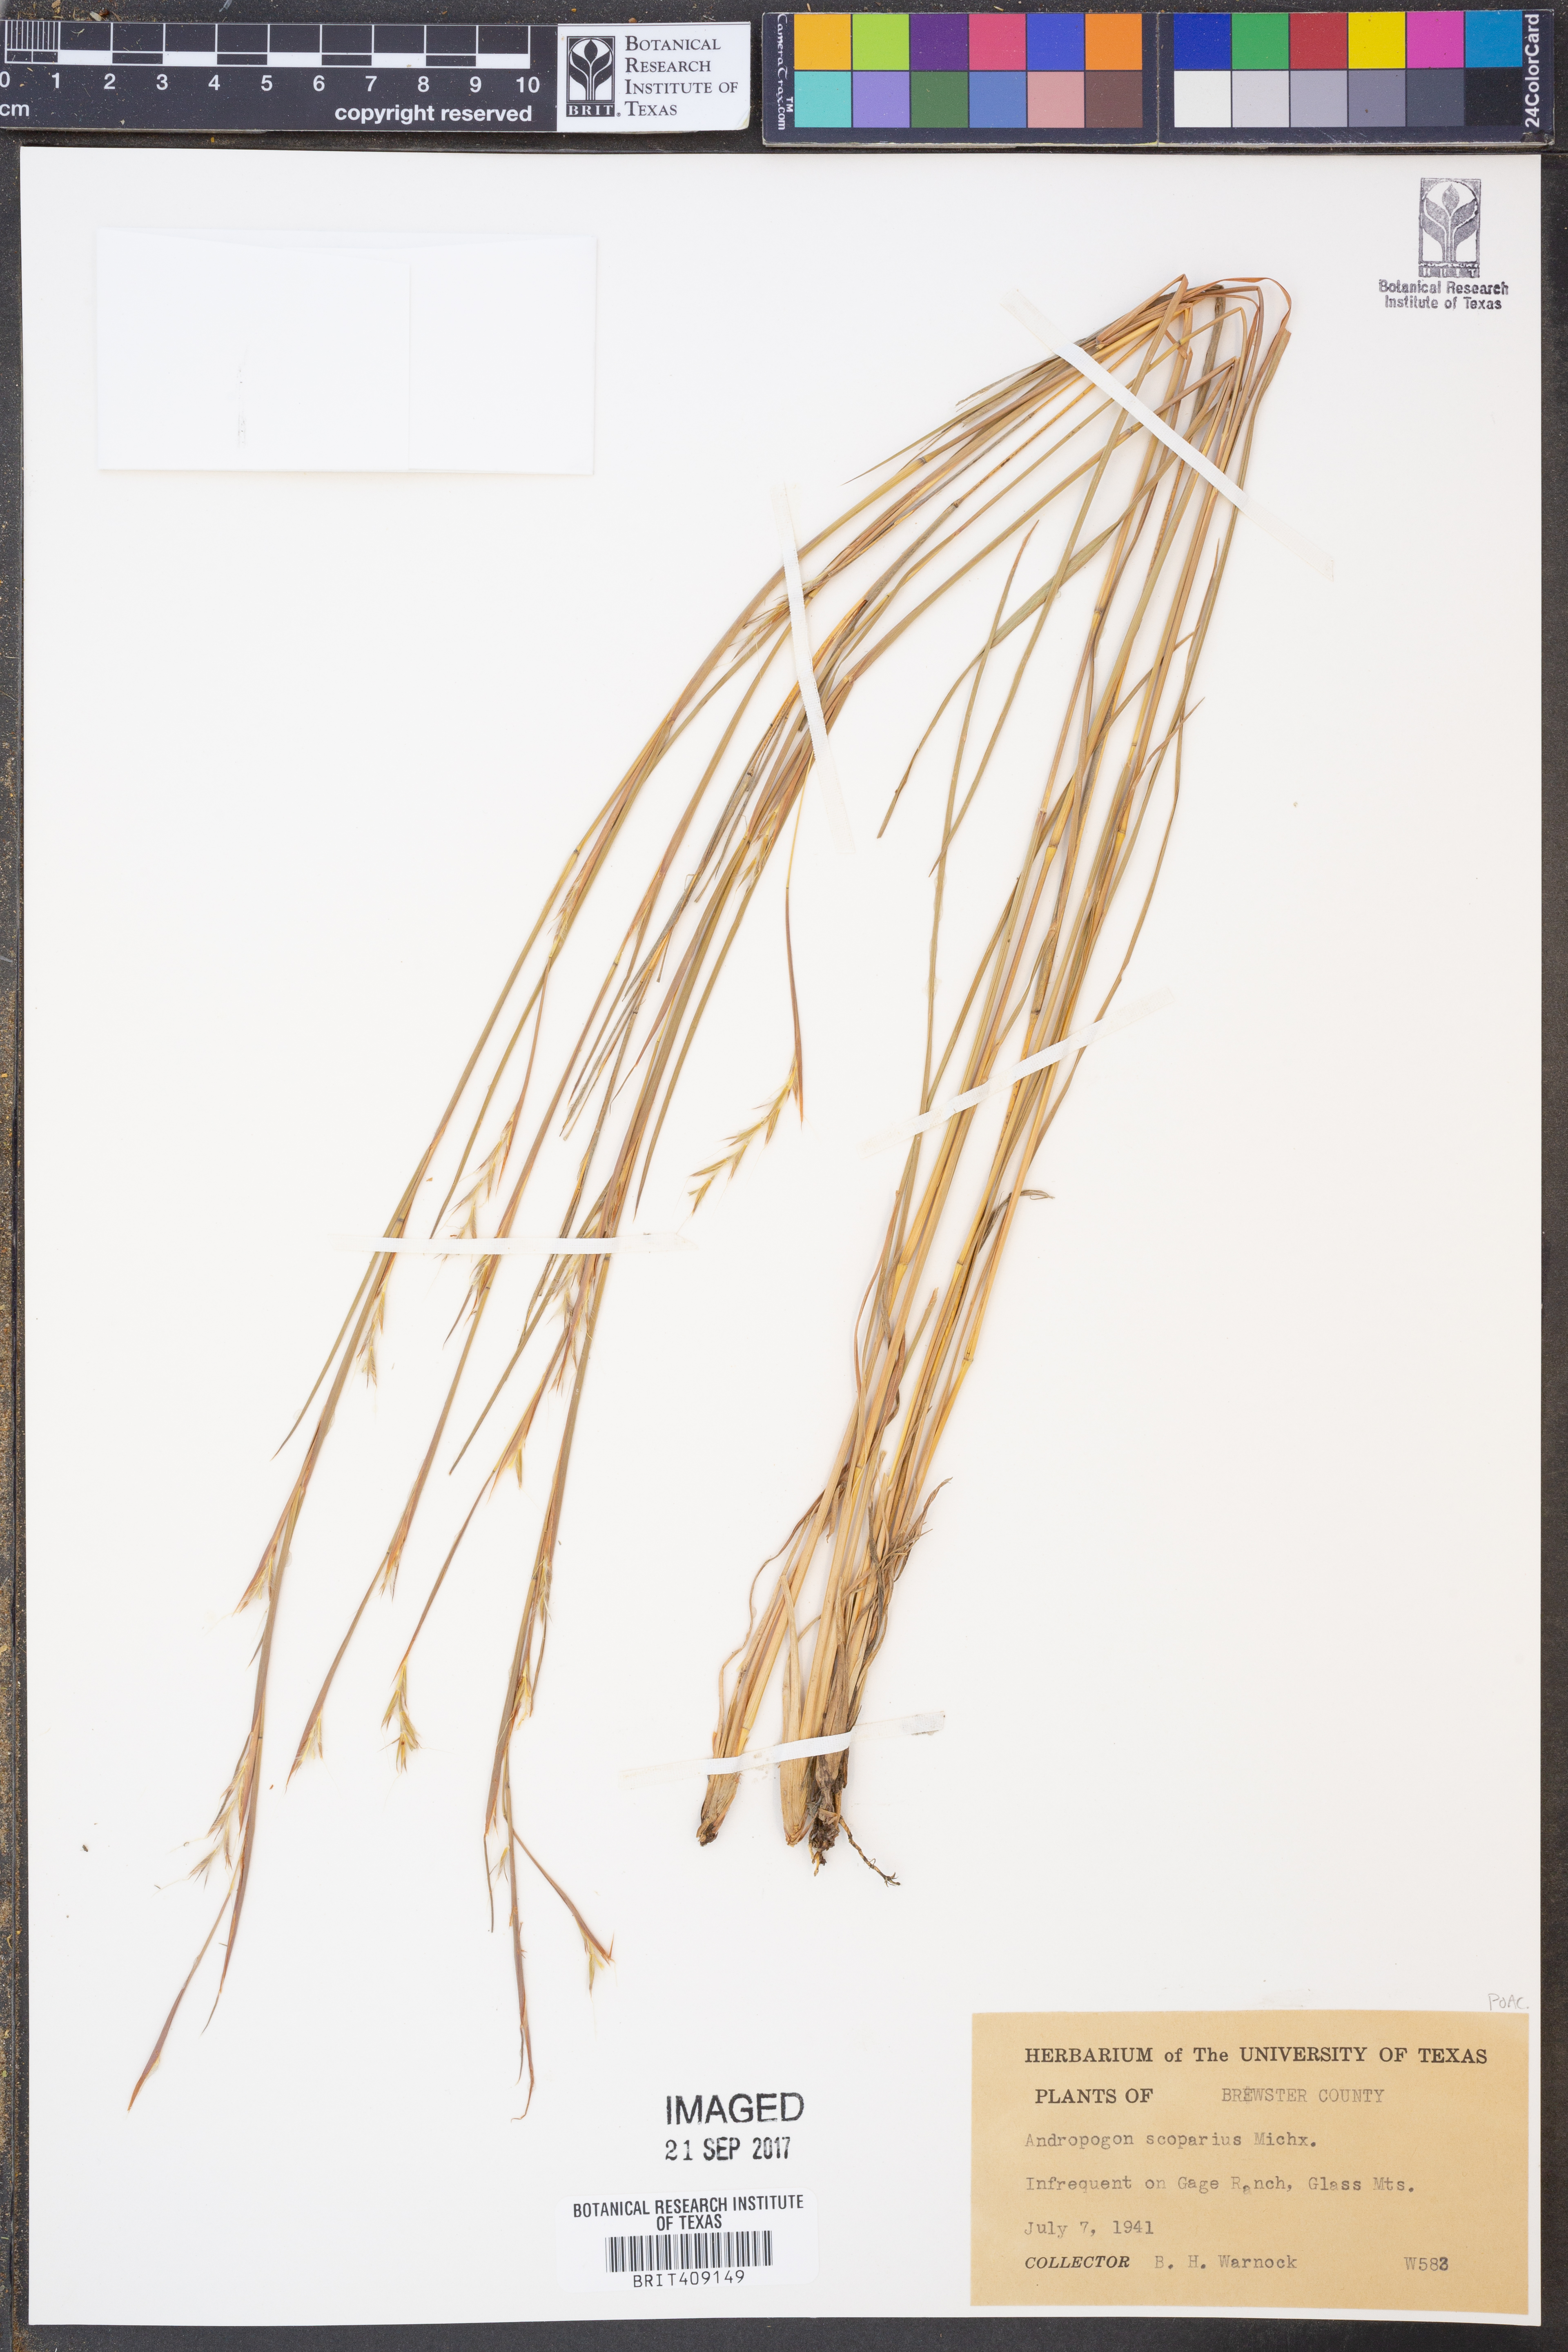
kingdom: Plantae
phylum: Tracheophyta
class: Liliopsida
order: Poales
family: Poaceae
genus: Schizachyrium
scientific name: Schizachyrium scoparium
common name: Little bluestem
